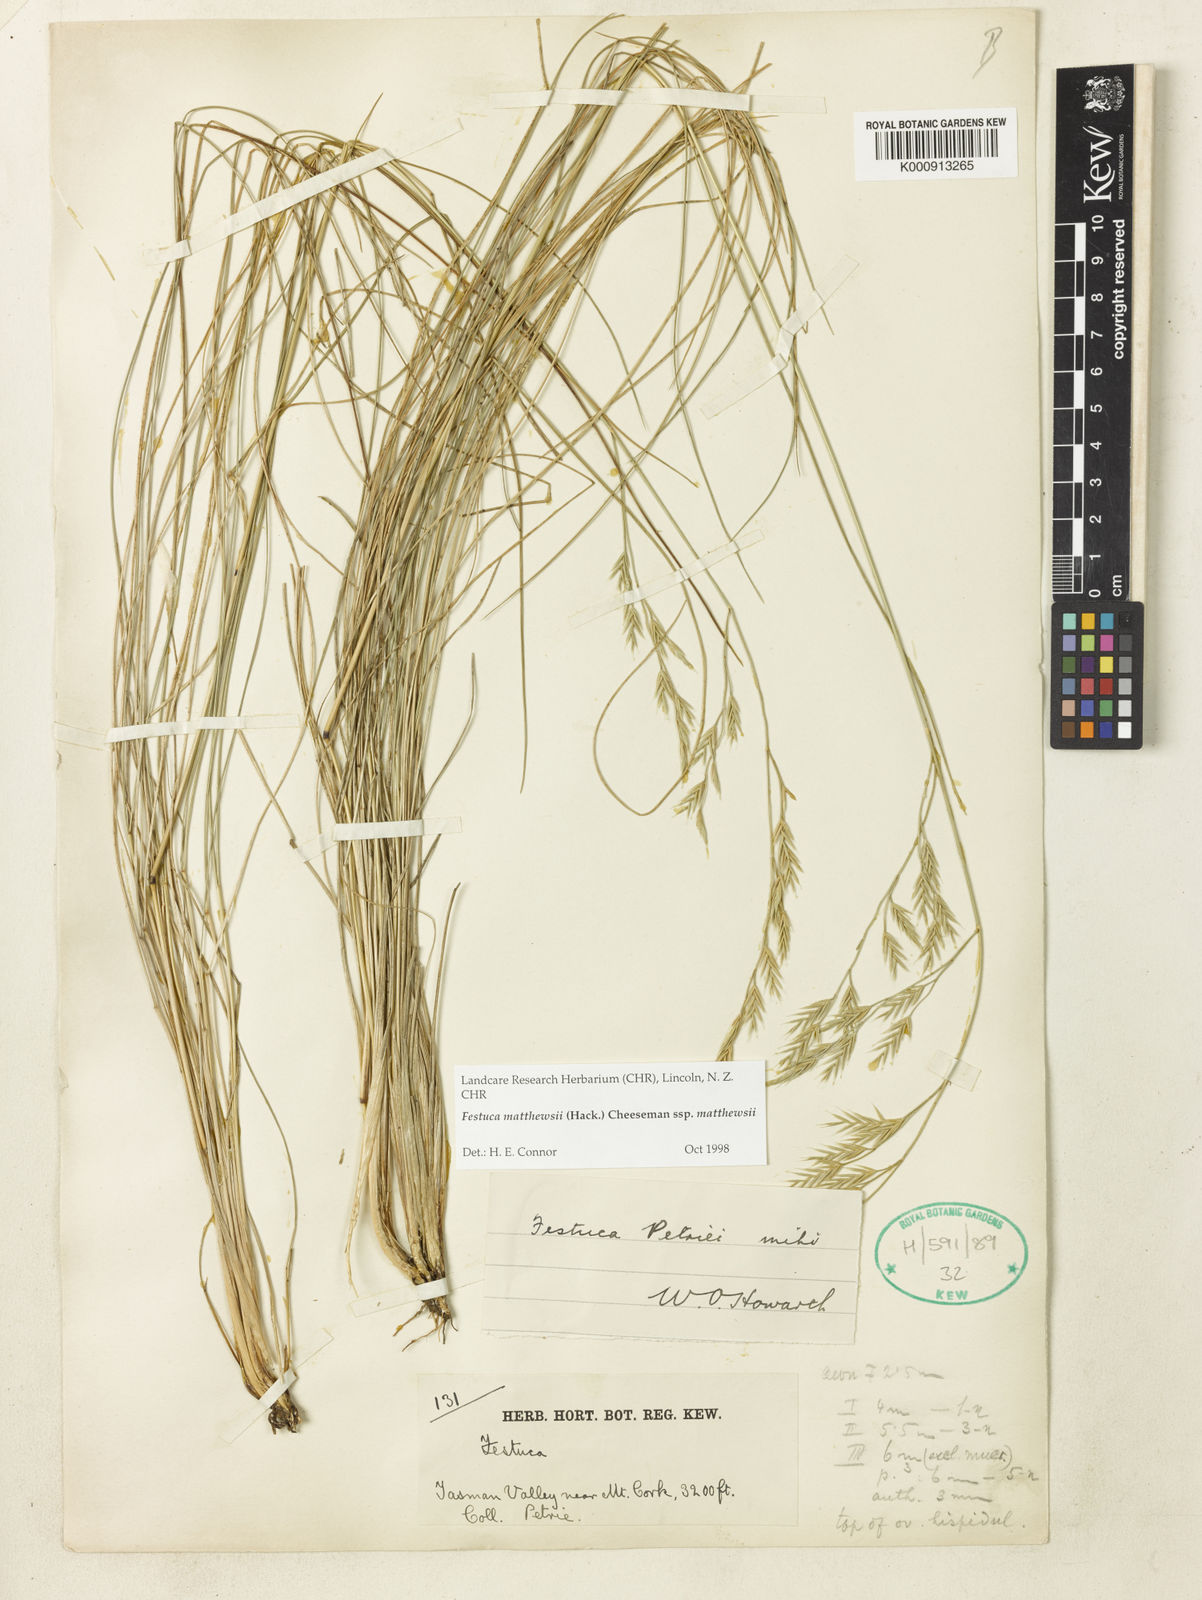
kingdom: Plantae
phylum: Tracheophyta
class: Liliopsida
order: Poales
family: Poaceae
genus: Festuca
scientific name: Festuca matthewsii
